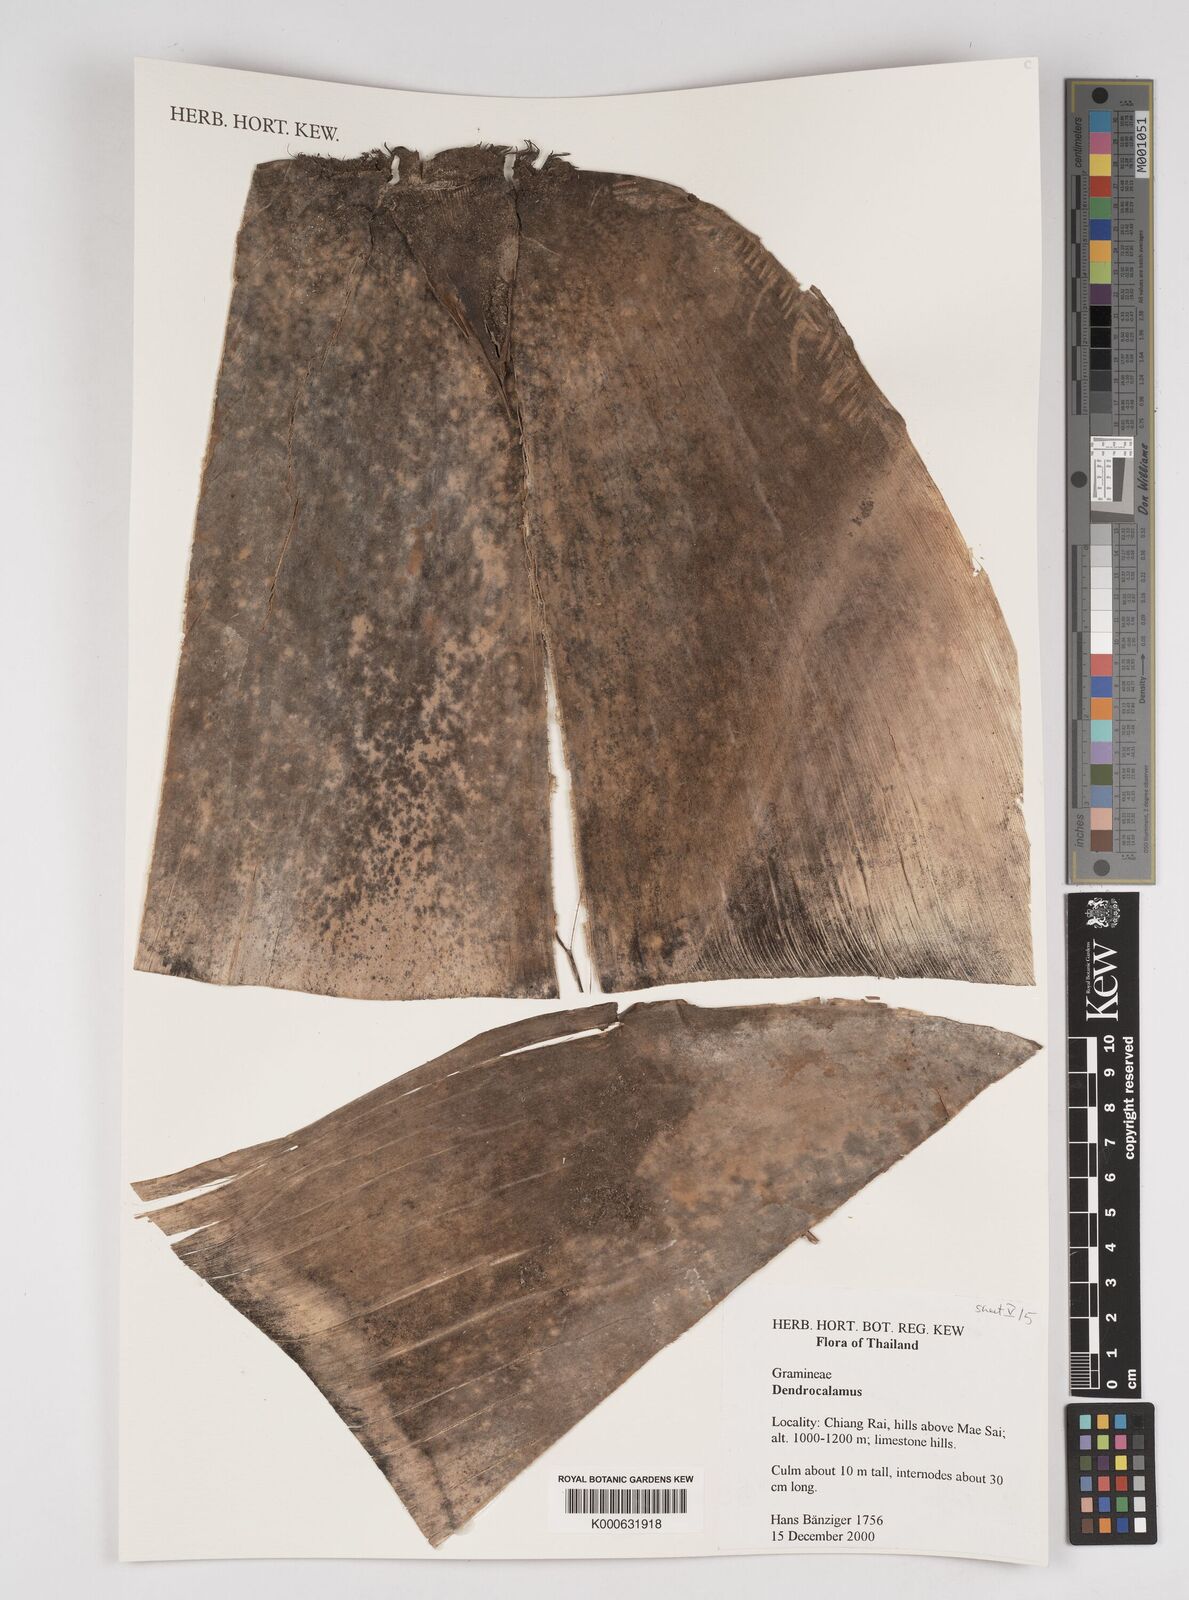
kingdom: Plantae
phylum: Tracheophyta
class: Liliopsida
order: Poales
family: Poaceae
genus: Dendrocalamus
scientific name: Dendrocalamus brandisii
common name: Velvetleaf bamboo
